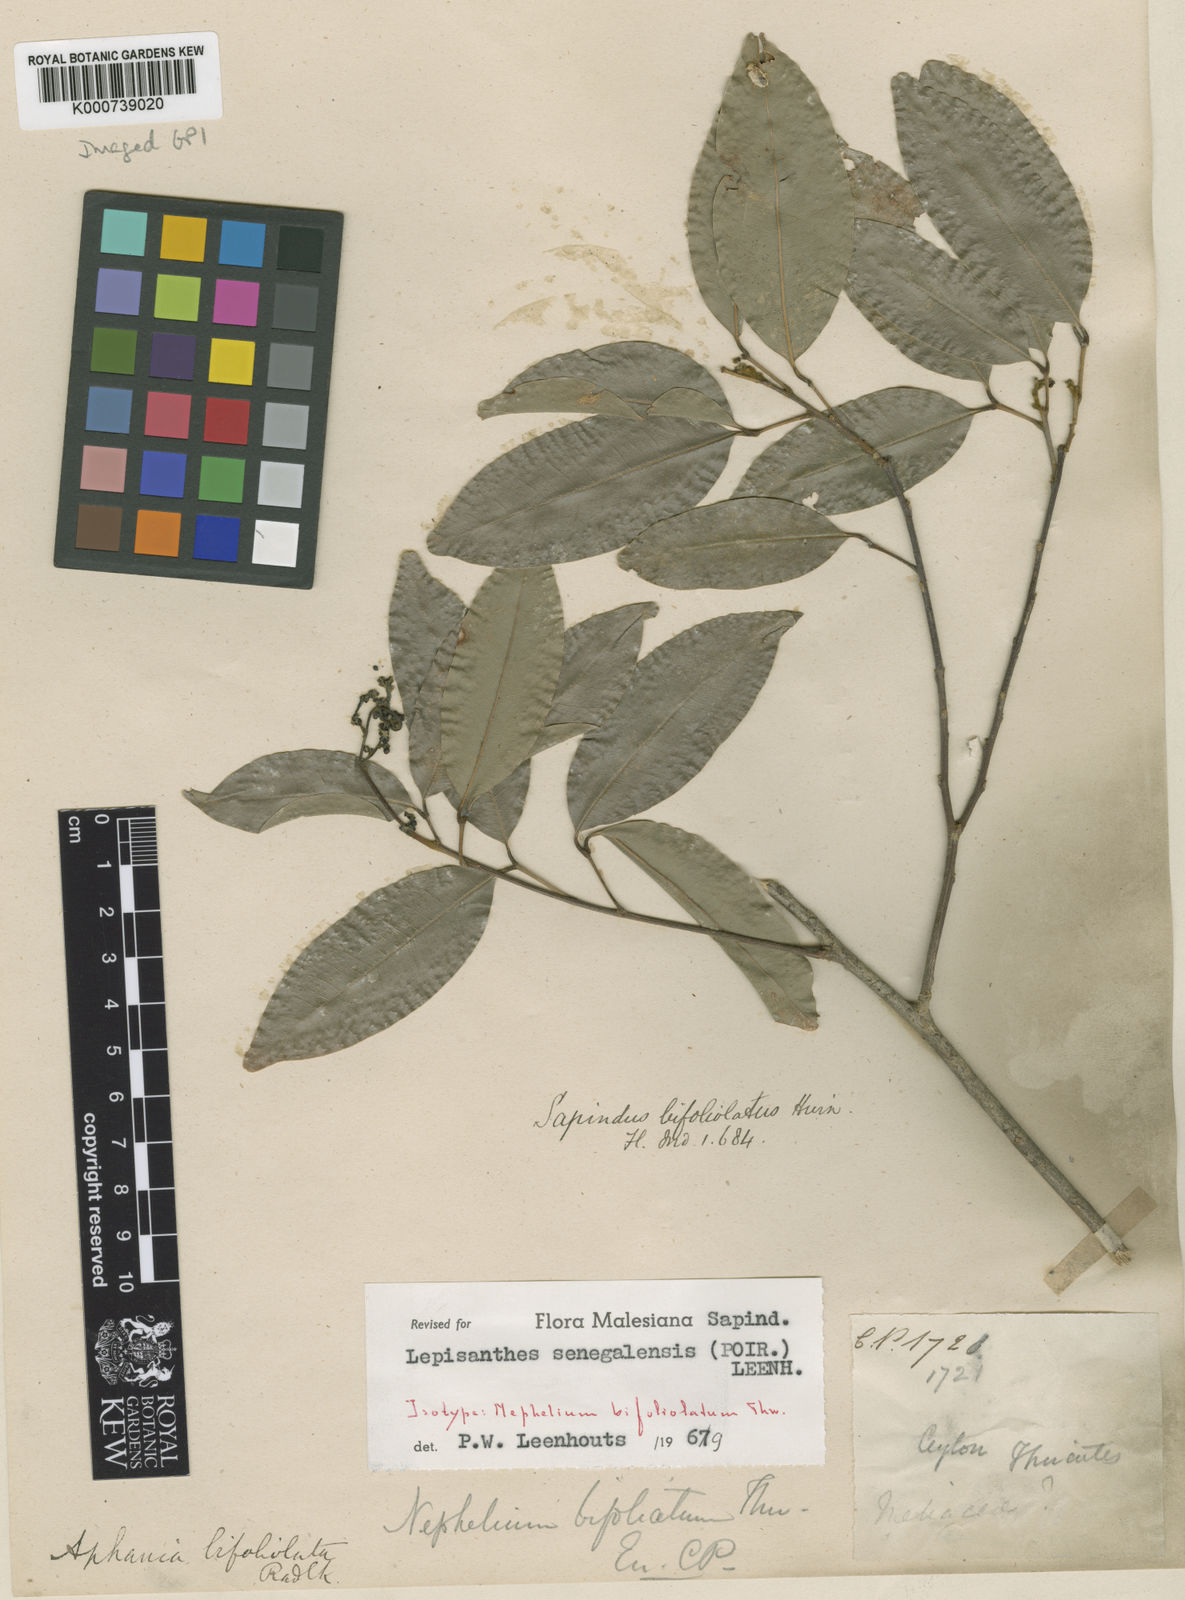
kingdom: Plantae
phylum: Tracheophyta
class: Magnoliopsida
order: Sapindales
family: Sapindaceae
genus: Lepisanthes
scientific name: Lepisanthes senegalensis
